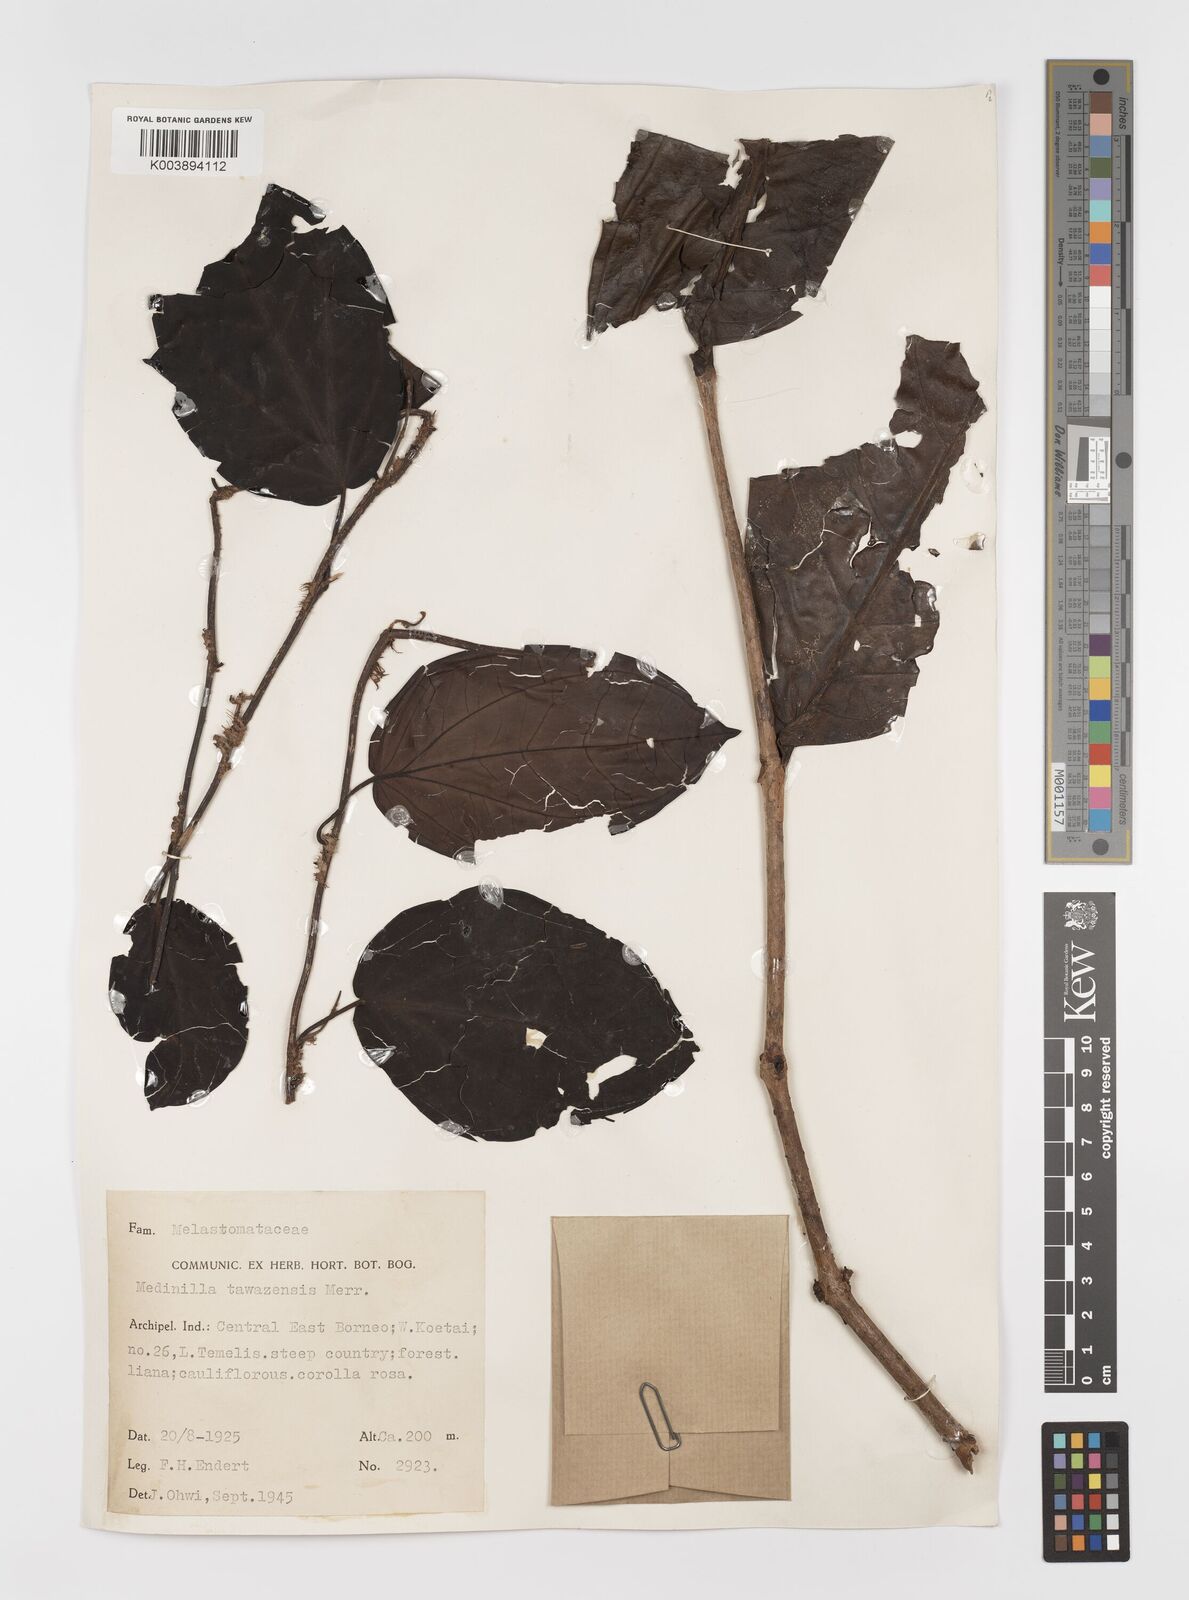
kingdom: Plantae
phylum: Tracheophyta
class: Magnoliopsida
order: Myrtales
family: Melastomataceae
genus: Catanthera
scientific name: Catanthera tawaensis
